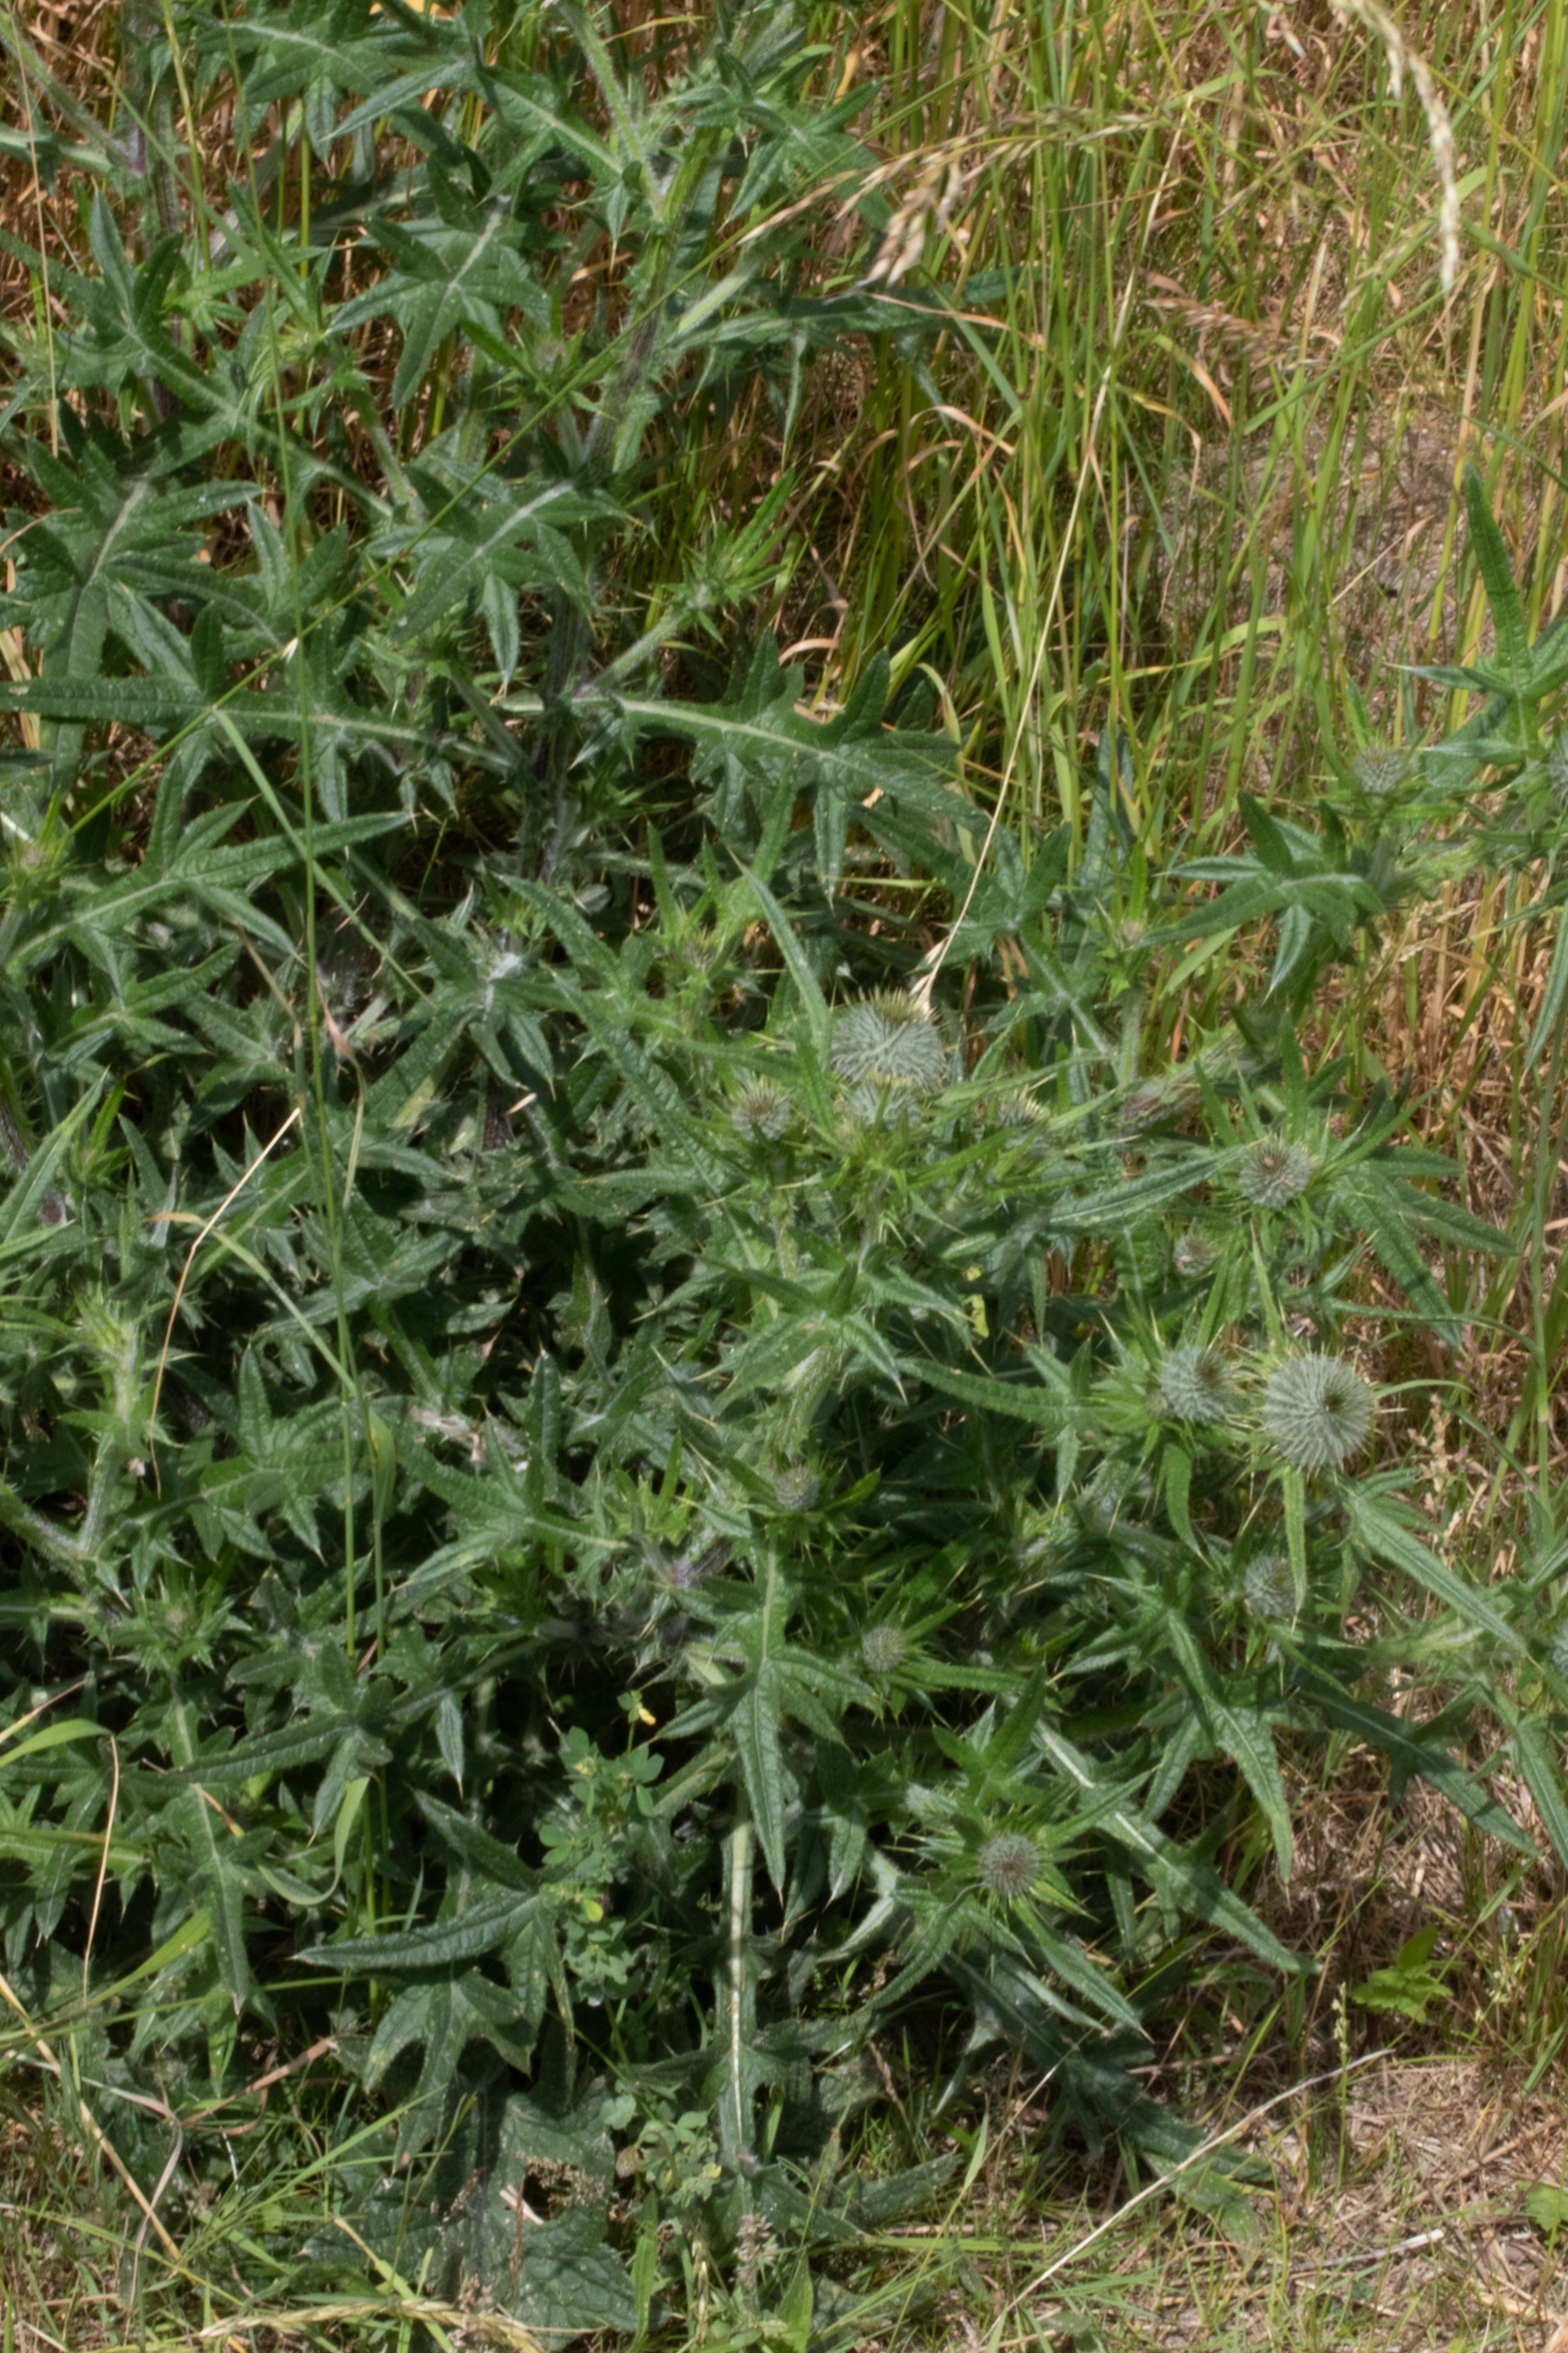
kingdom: Plantae
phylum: Tracheophyta
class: Magnoliopsida
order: Asterales
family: Asteraceae
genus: Cirsium
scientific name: Cirsium vulgare
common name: Horse-tidsel
